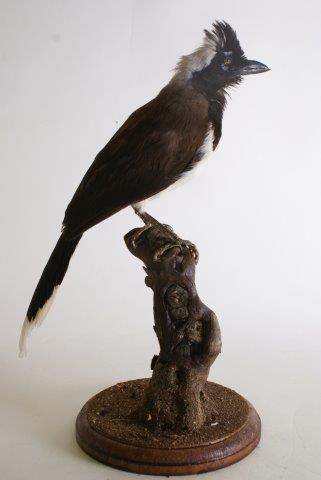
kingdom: Animalia
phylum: Chordata
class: Aves
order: Passeriformes
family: Corvidae
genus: Cyanocorax
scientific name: Cyanocorax affinis
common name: Black-chested jay
